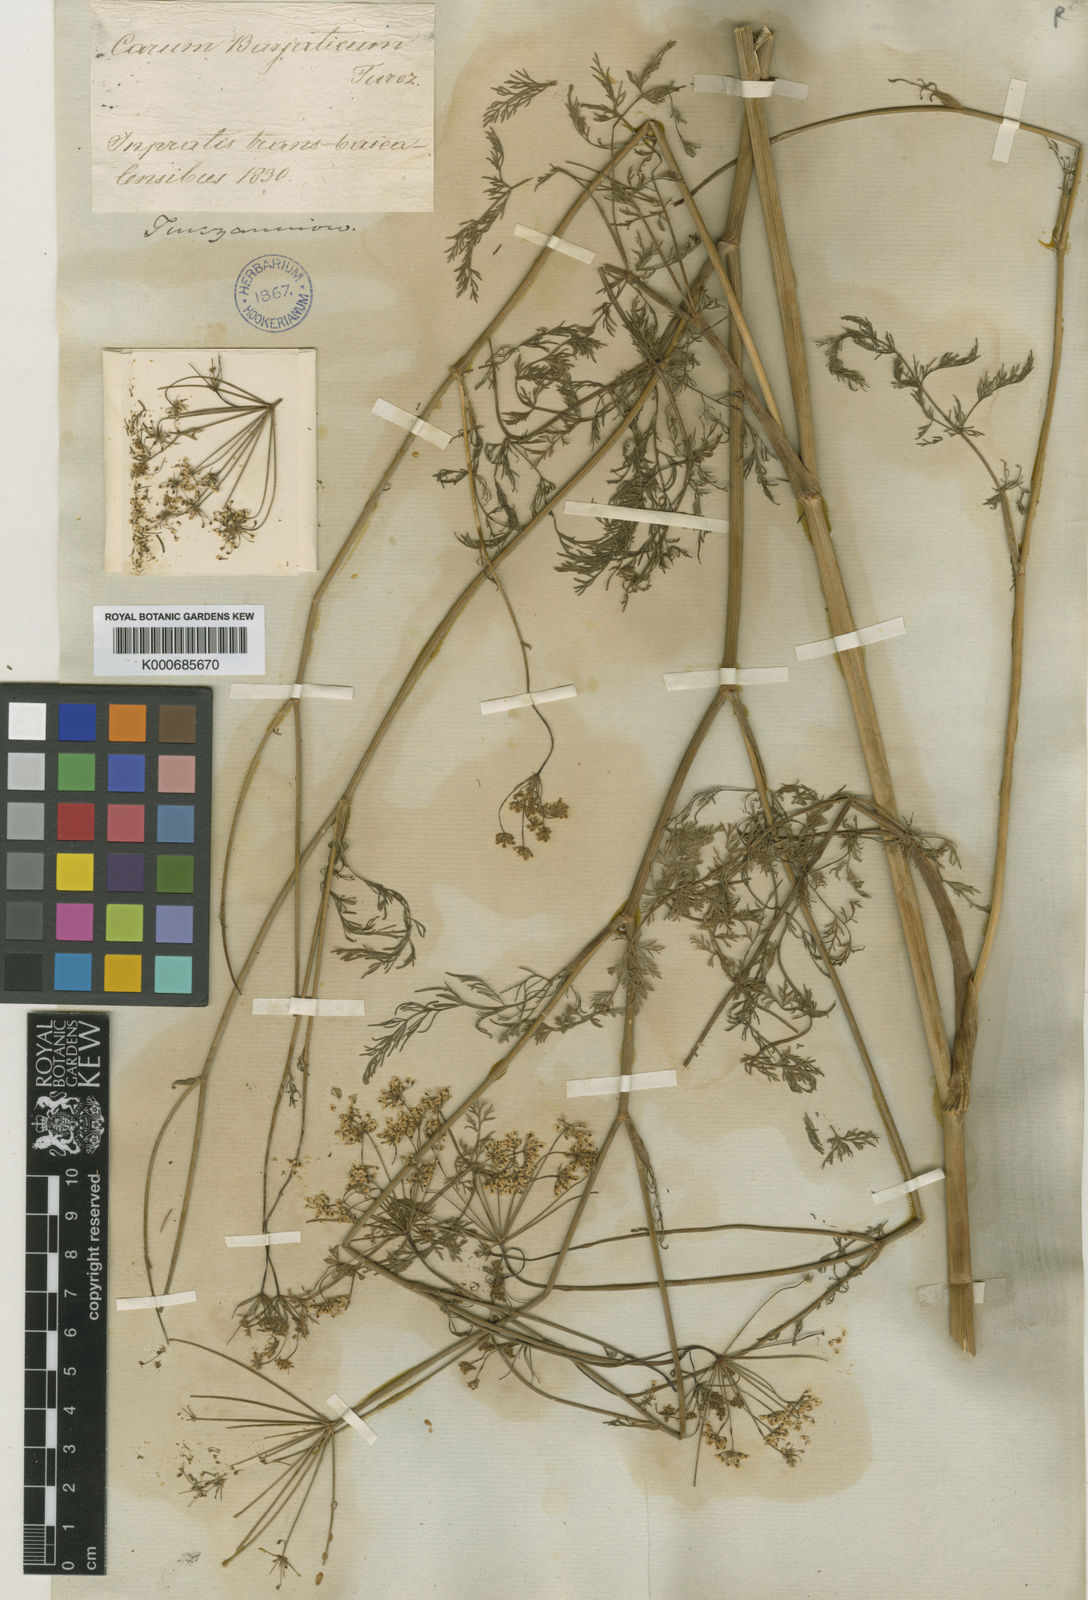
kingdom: Plantae
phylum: Tracheophyta
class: Magnoliopsida
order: Apiales
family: Apiaceae
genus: Carum
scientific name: Carum
